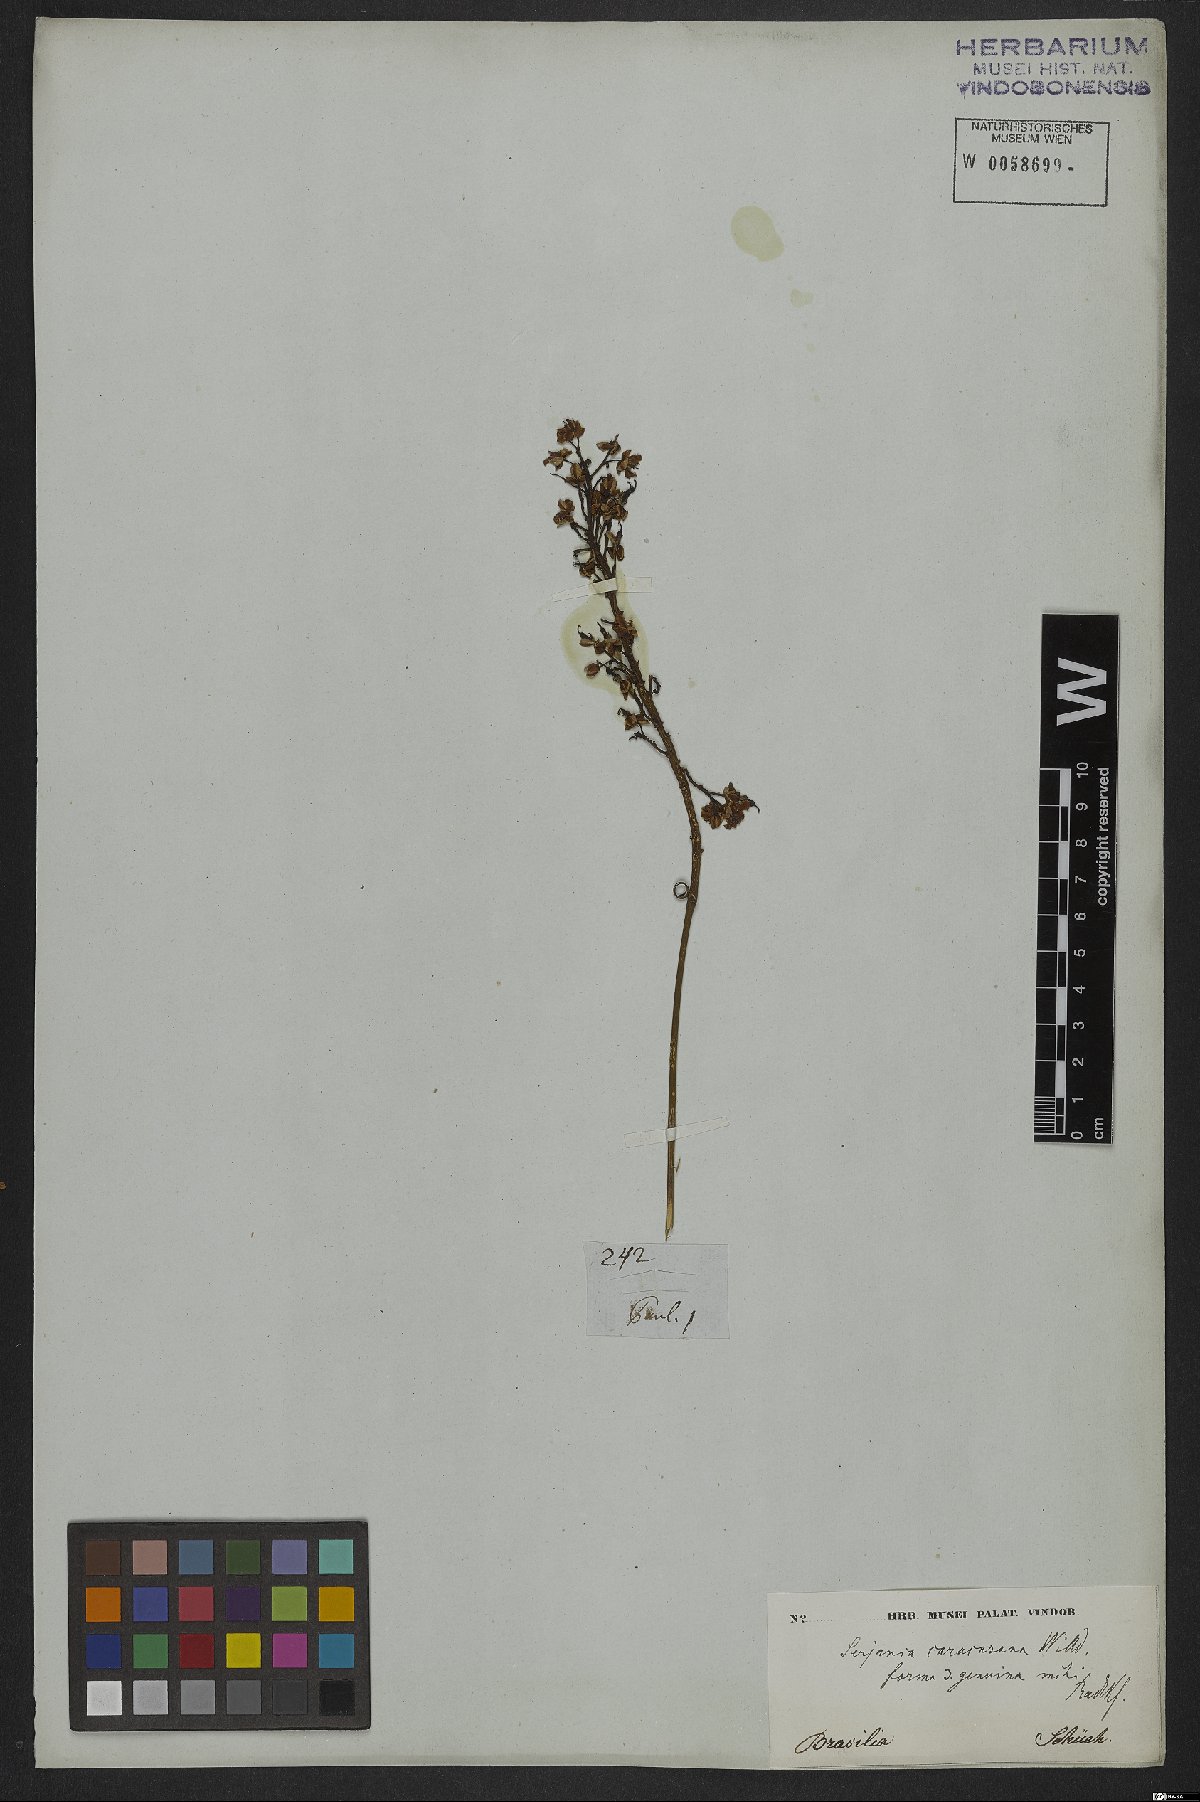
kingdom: Plantae
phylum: Tracheophyta
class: Magnoliopsida
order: Sapindales
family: Sapindaceae
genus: Serjania
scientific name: Serjania caracasana
